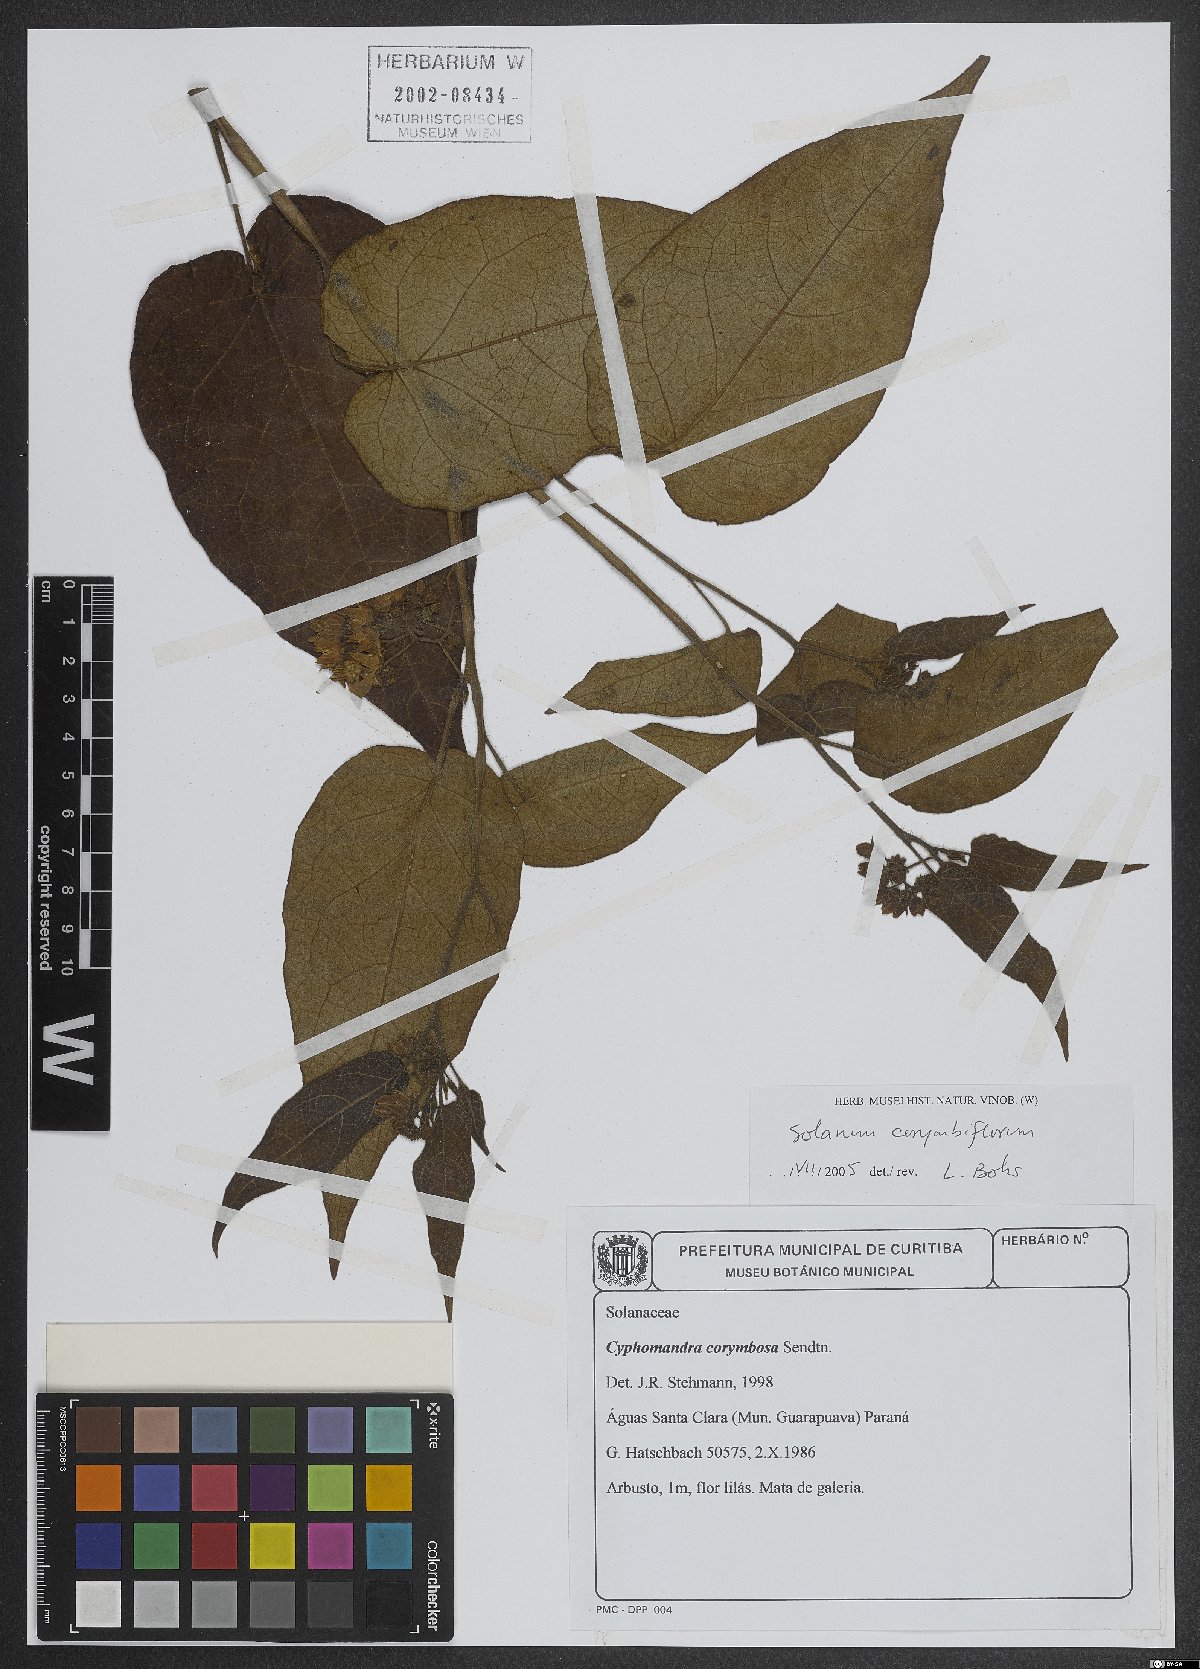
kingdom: Plantae
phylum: Tracheophyta
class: Magnoliopsida
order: Solanales
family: Solanaceae
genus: Solanum
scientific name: Solanum corymbiflorum
